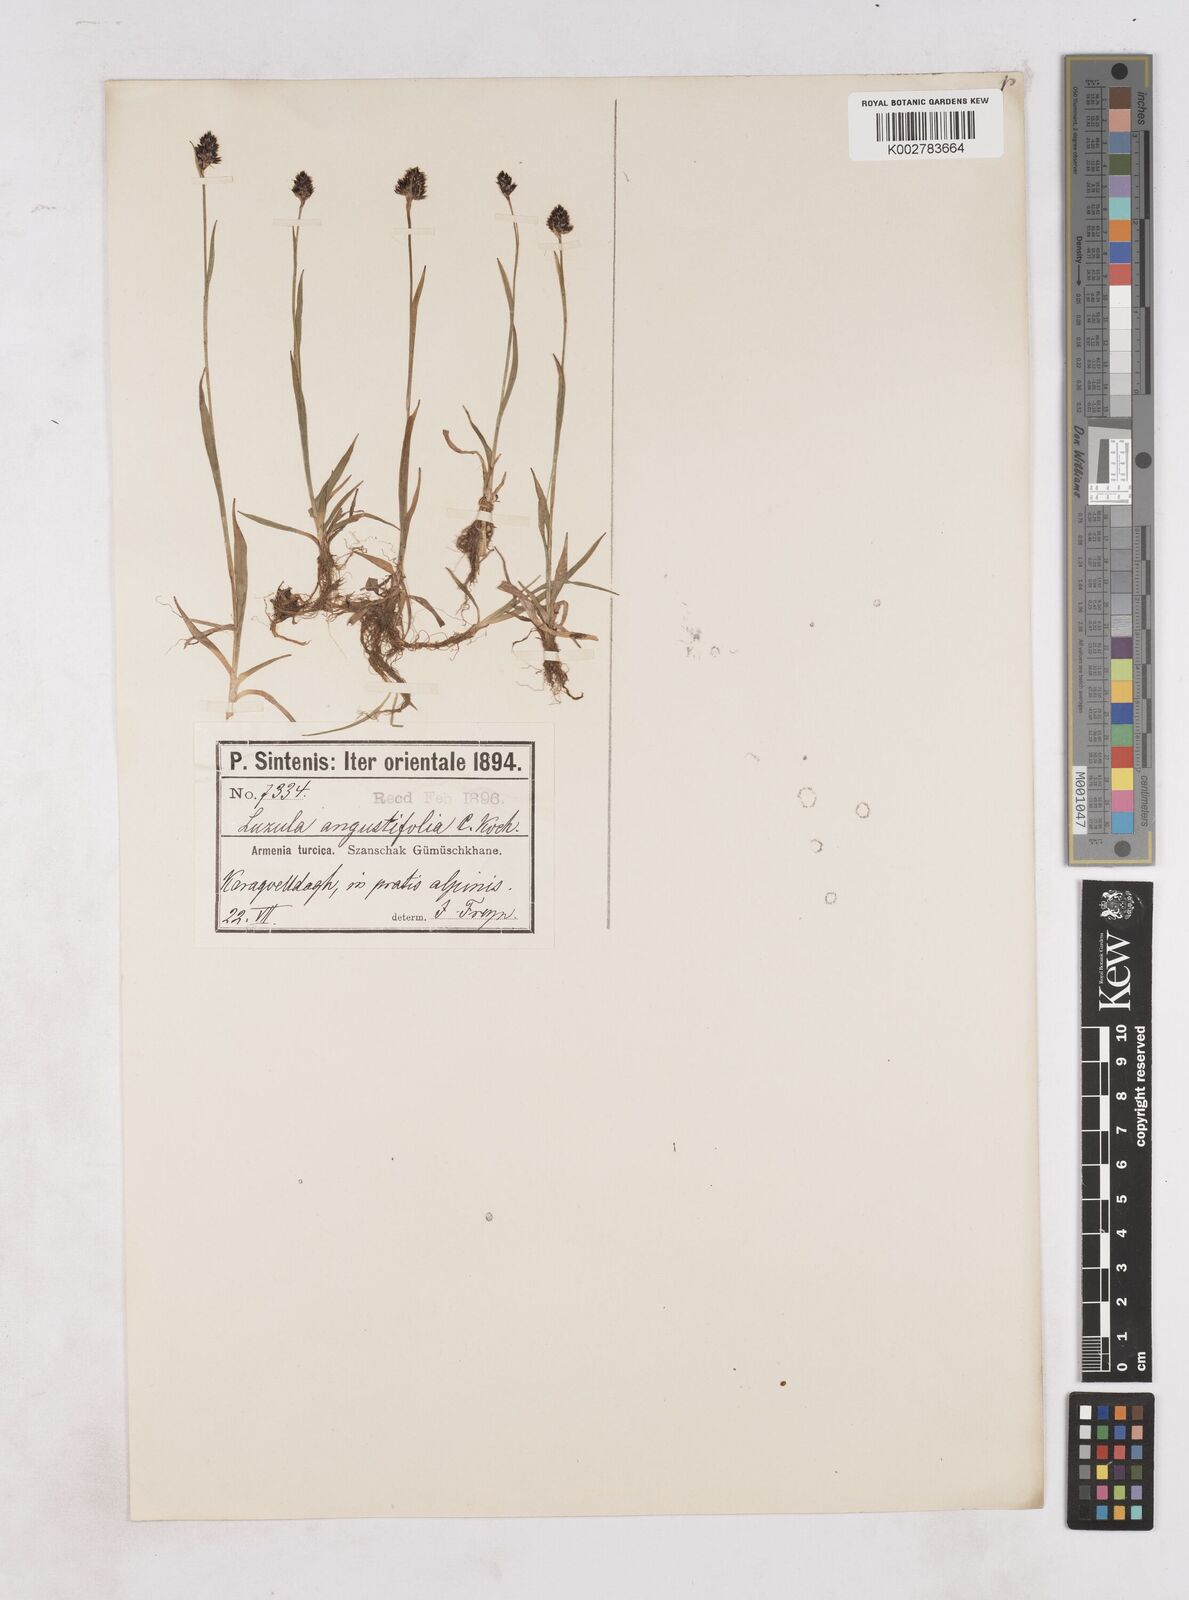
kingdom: Plantae
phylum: Tracheophyta
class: Liliopsida
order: Poales
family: Juncaceae
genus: Luzula
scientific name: Luzula campestris
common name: Field wood-rush
